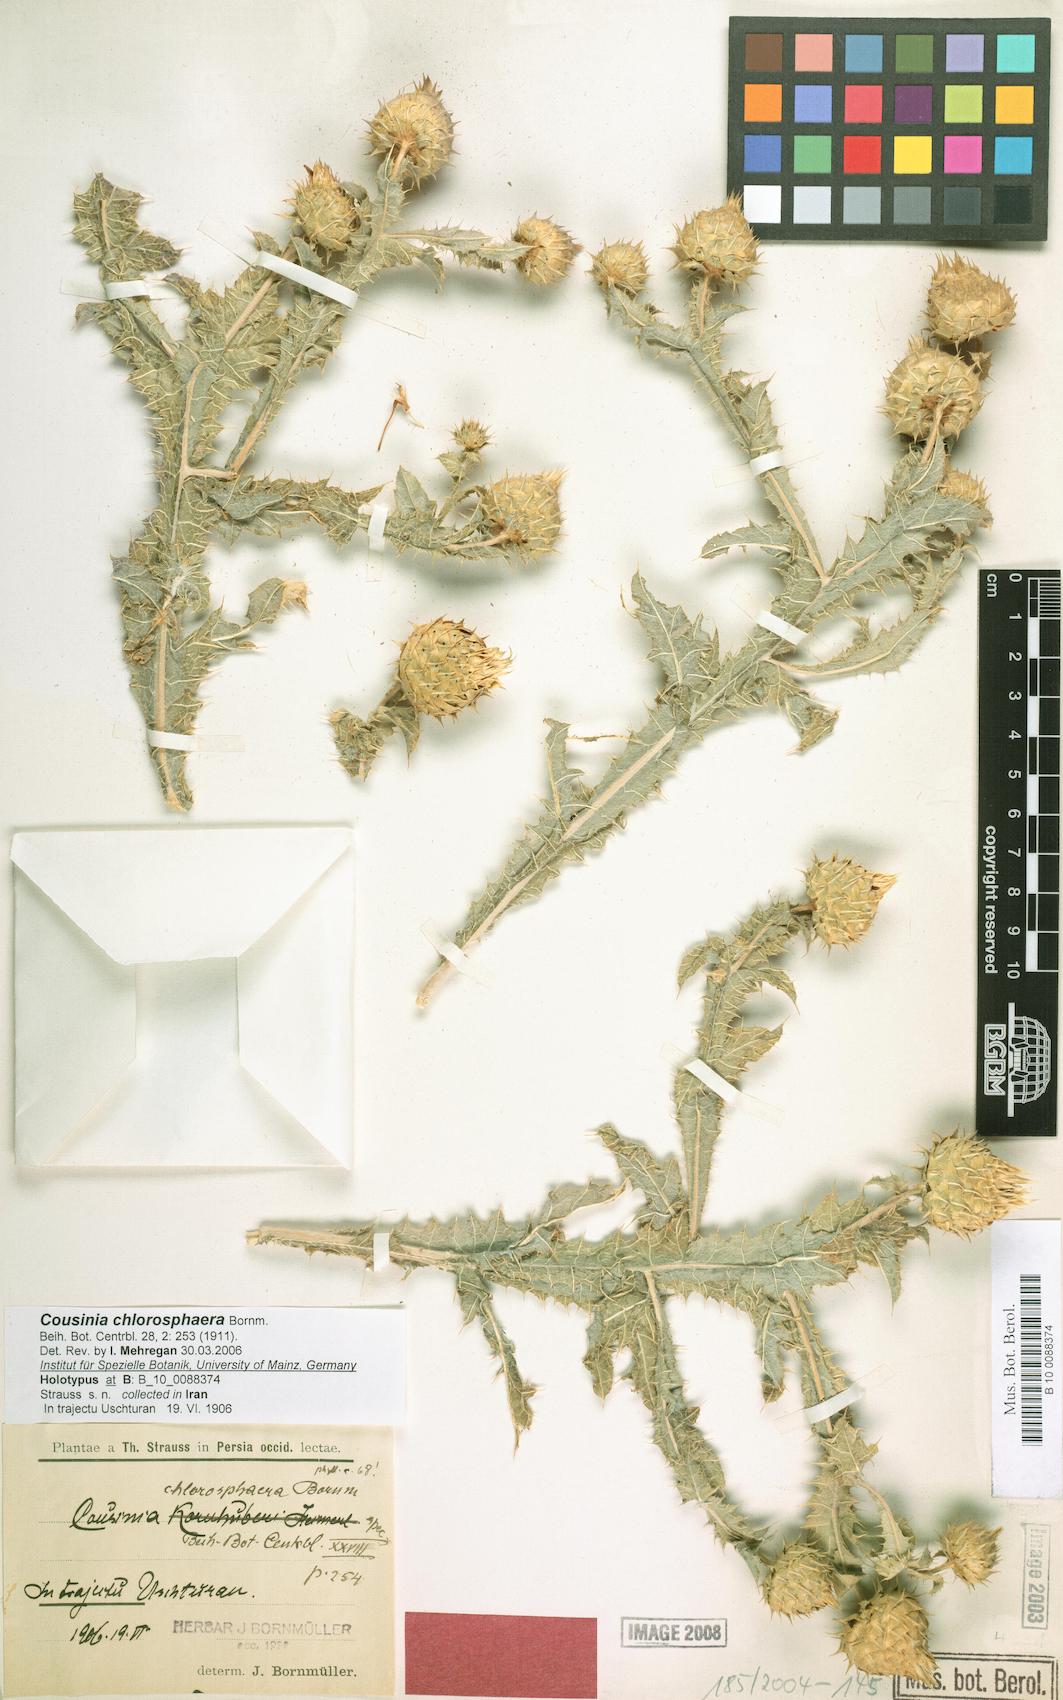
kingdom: Plantae
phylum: Tracheophyta
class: Magnoliopsida
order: Asterales
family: Asteraceae
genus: Cousinia
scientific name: Cousinia chlorosphaera
